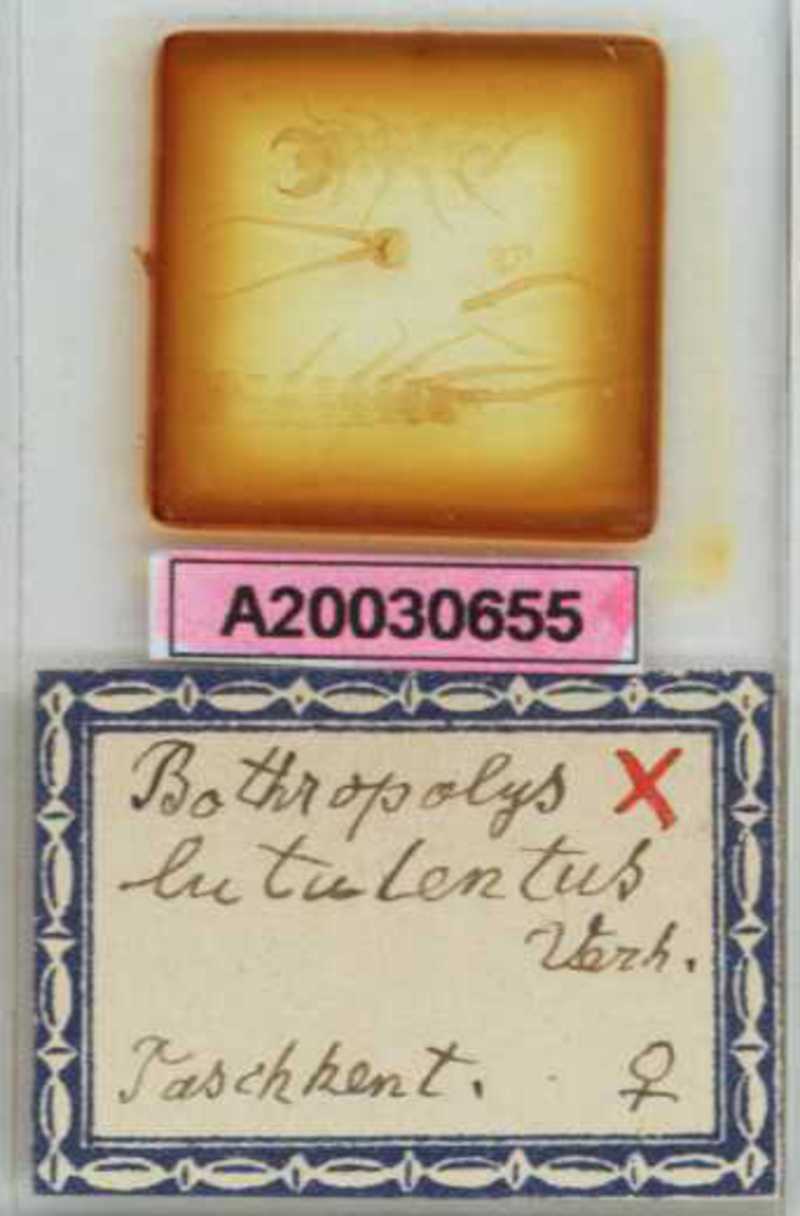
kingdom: Animalia
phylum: Arthropoda
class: Chilopoda
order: Lithobiomorpha
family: Lithobiidae
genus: Eupolybothrus
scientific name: Eupolybothrus Bothropolys lutulentus
